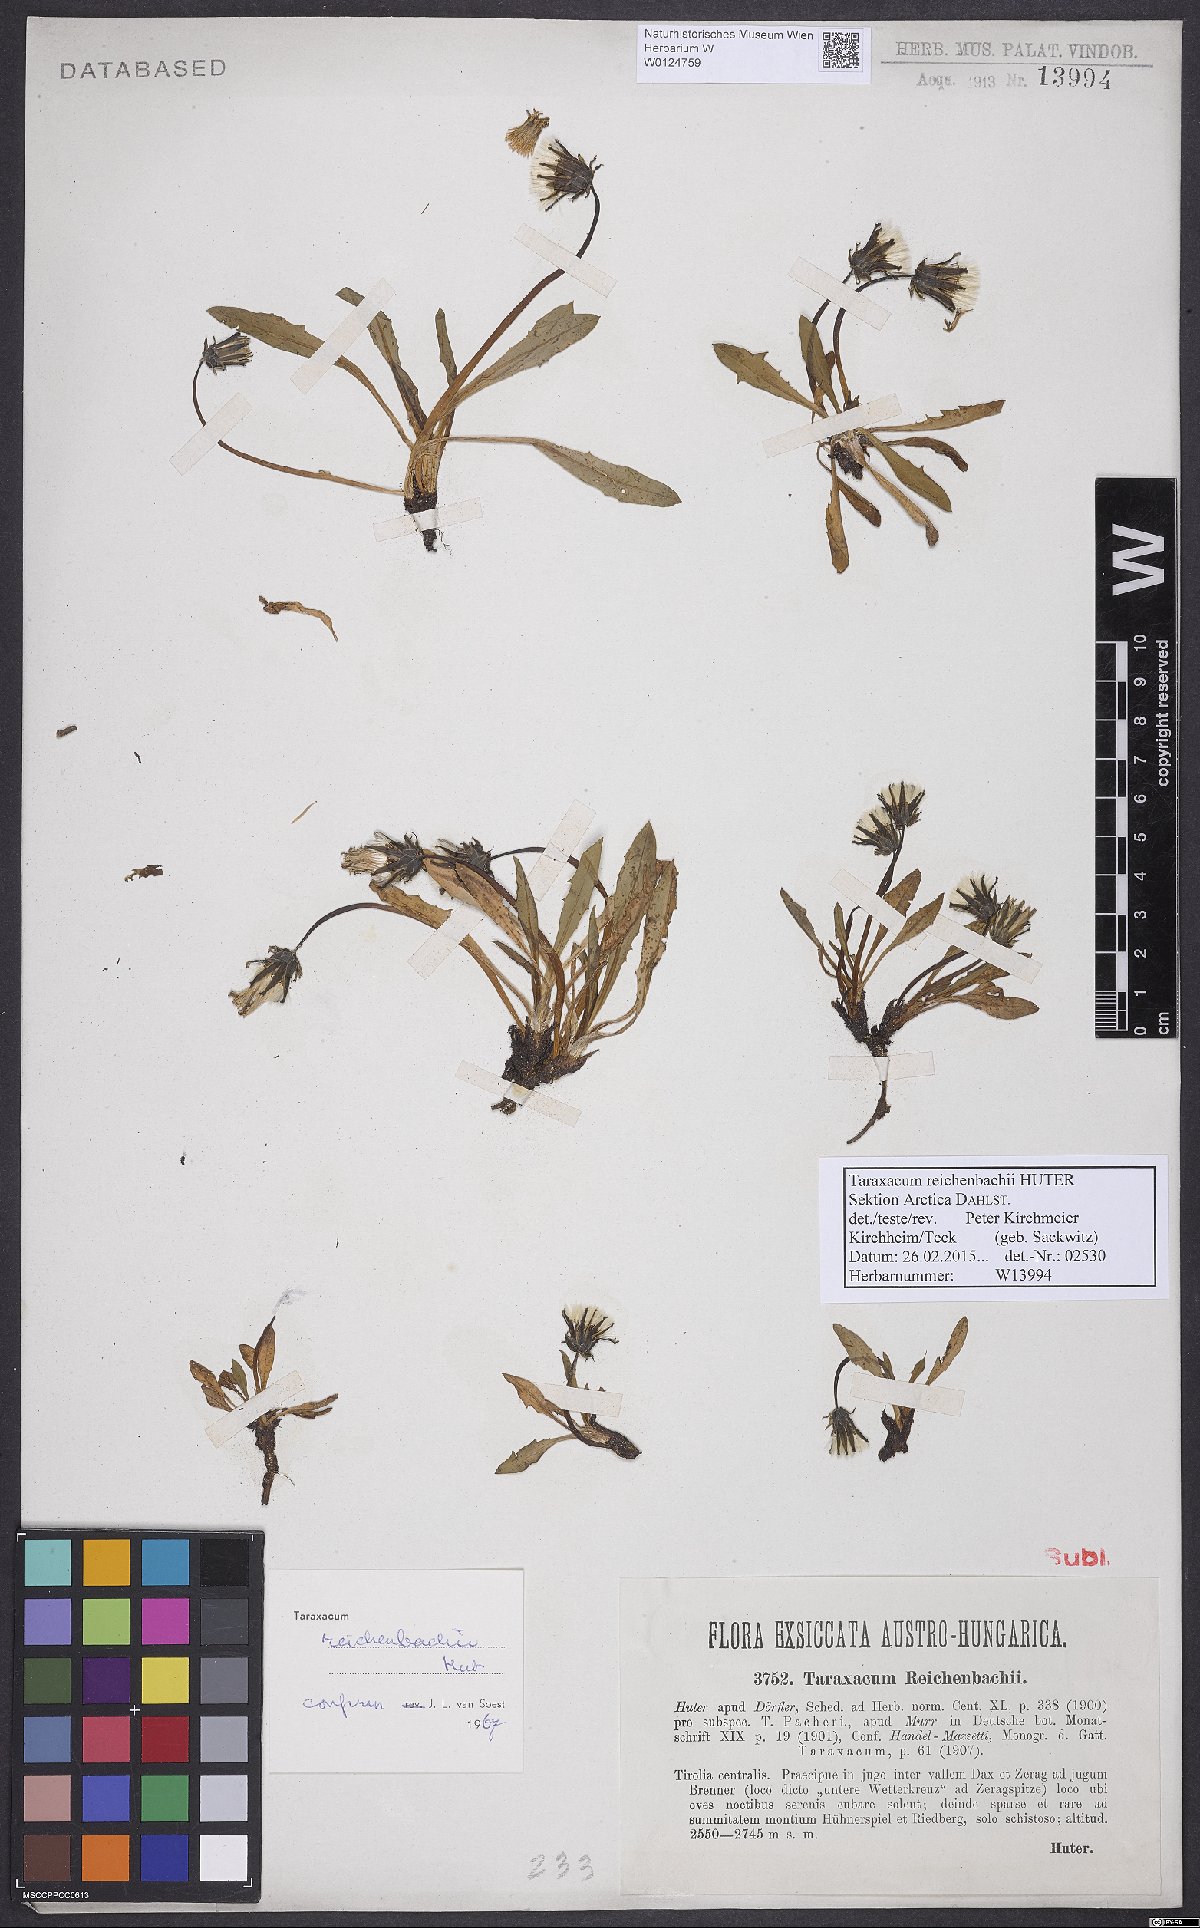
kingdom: Plantae
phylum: Tracheophyta
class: Magnoliopsida
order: Asterales
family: Asteraceae
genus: Taraxacum
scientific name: Taraxacum reichenbachii
